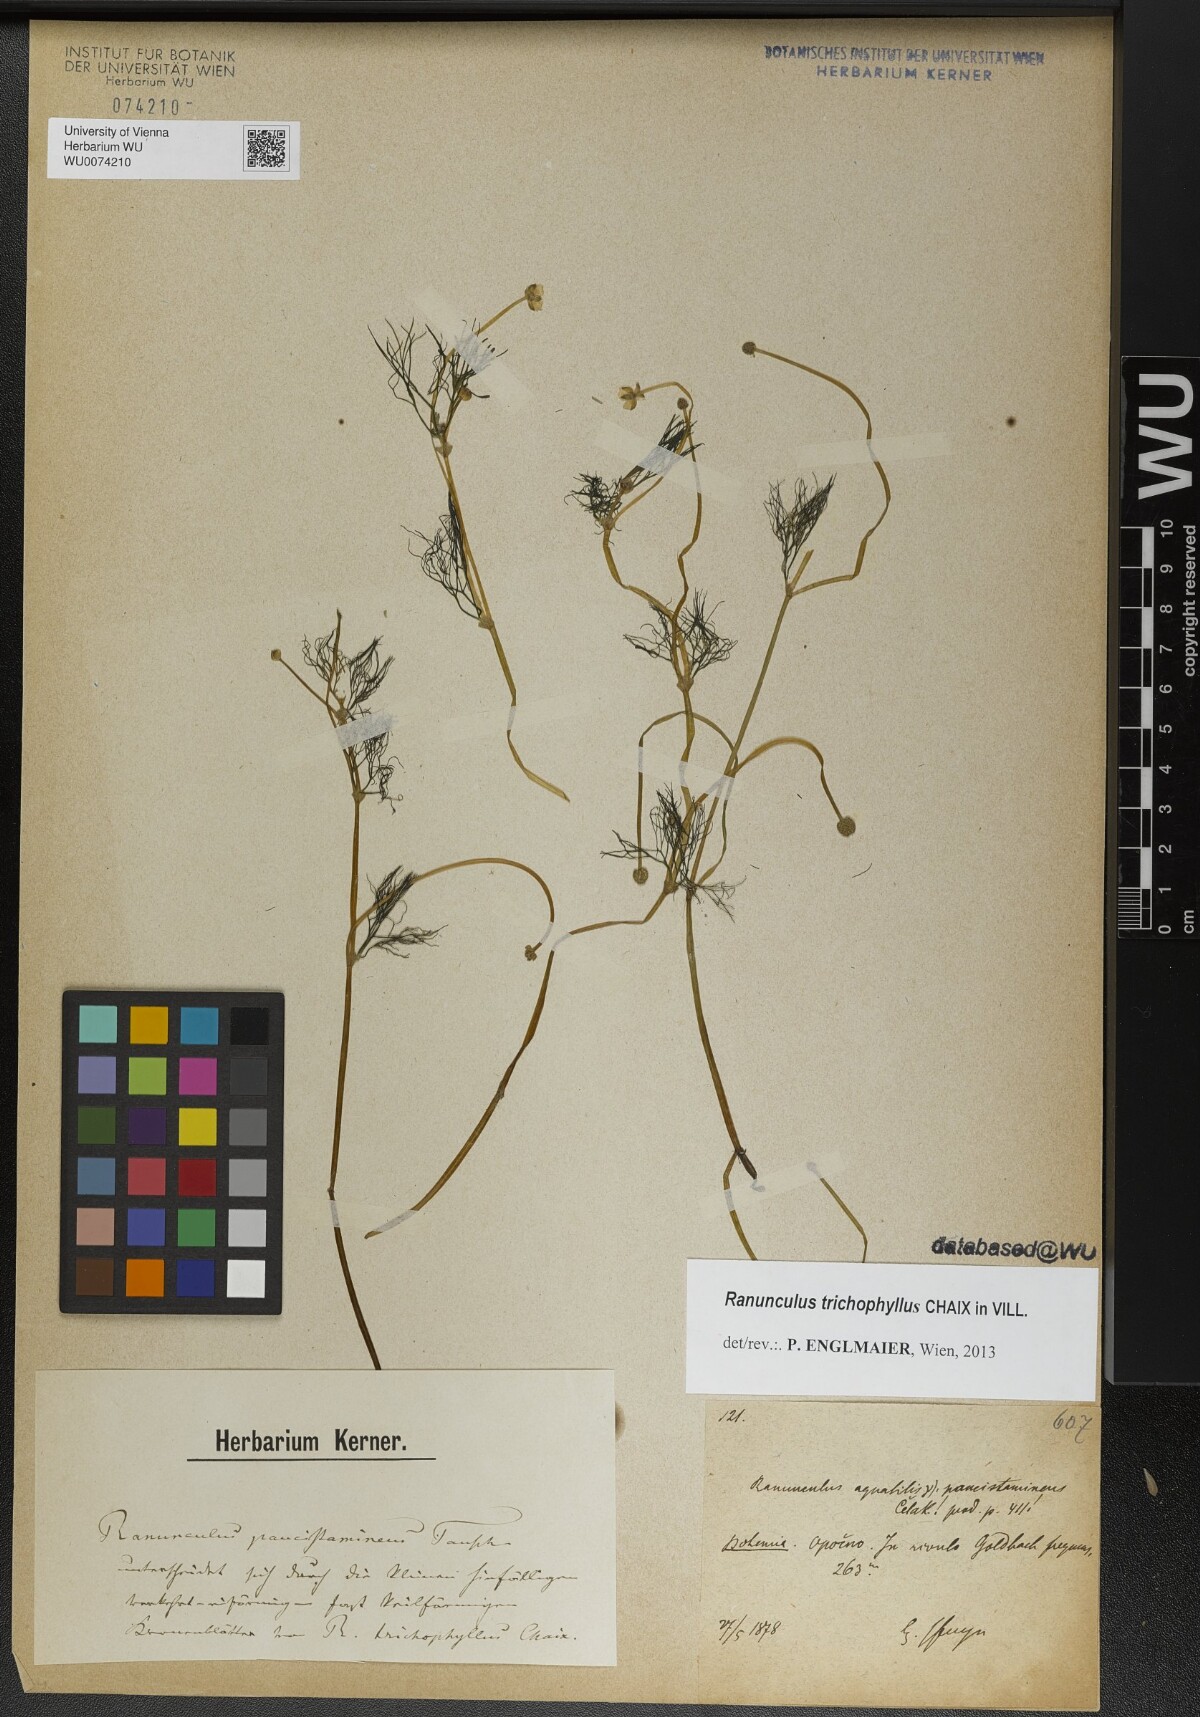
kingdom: Plantae
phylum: Tracheophyta
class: Magnoliopsida
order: Ranunculales
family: Ranunculaceae
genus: Ranunculus
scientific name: Ranunculus trichophyllus
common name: Thread-leaved water-crowfoot
